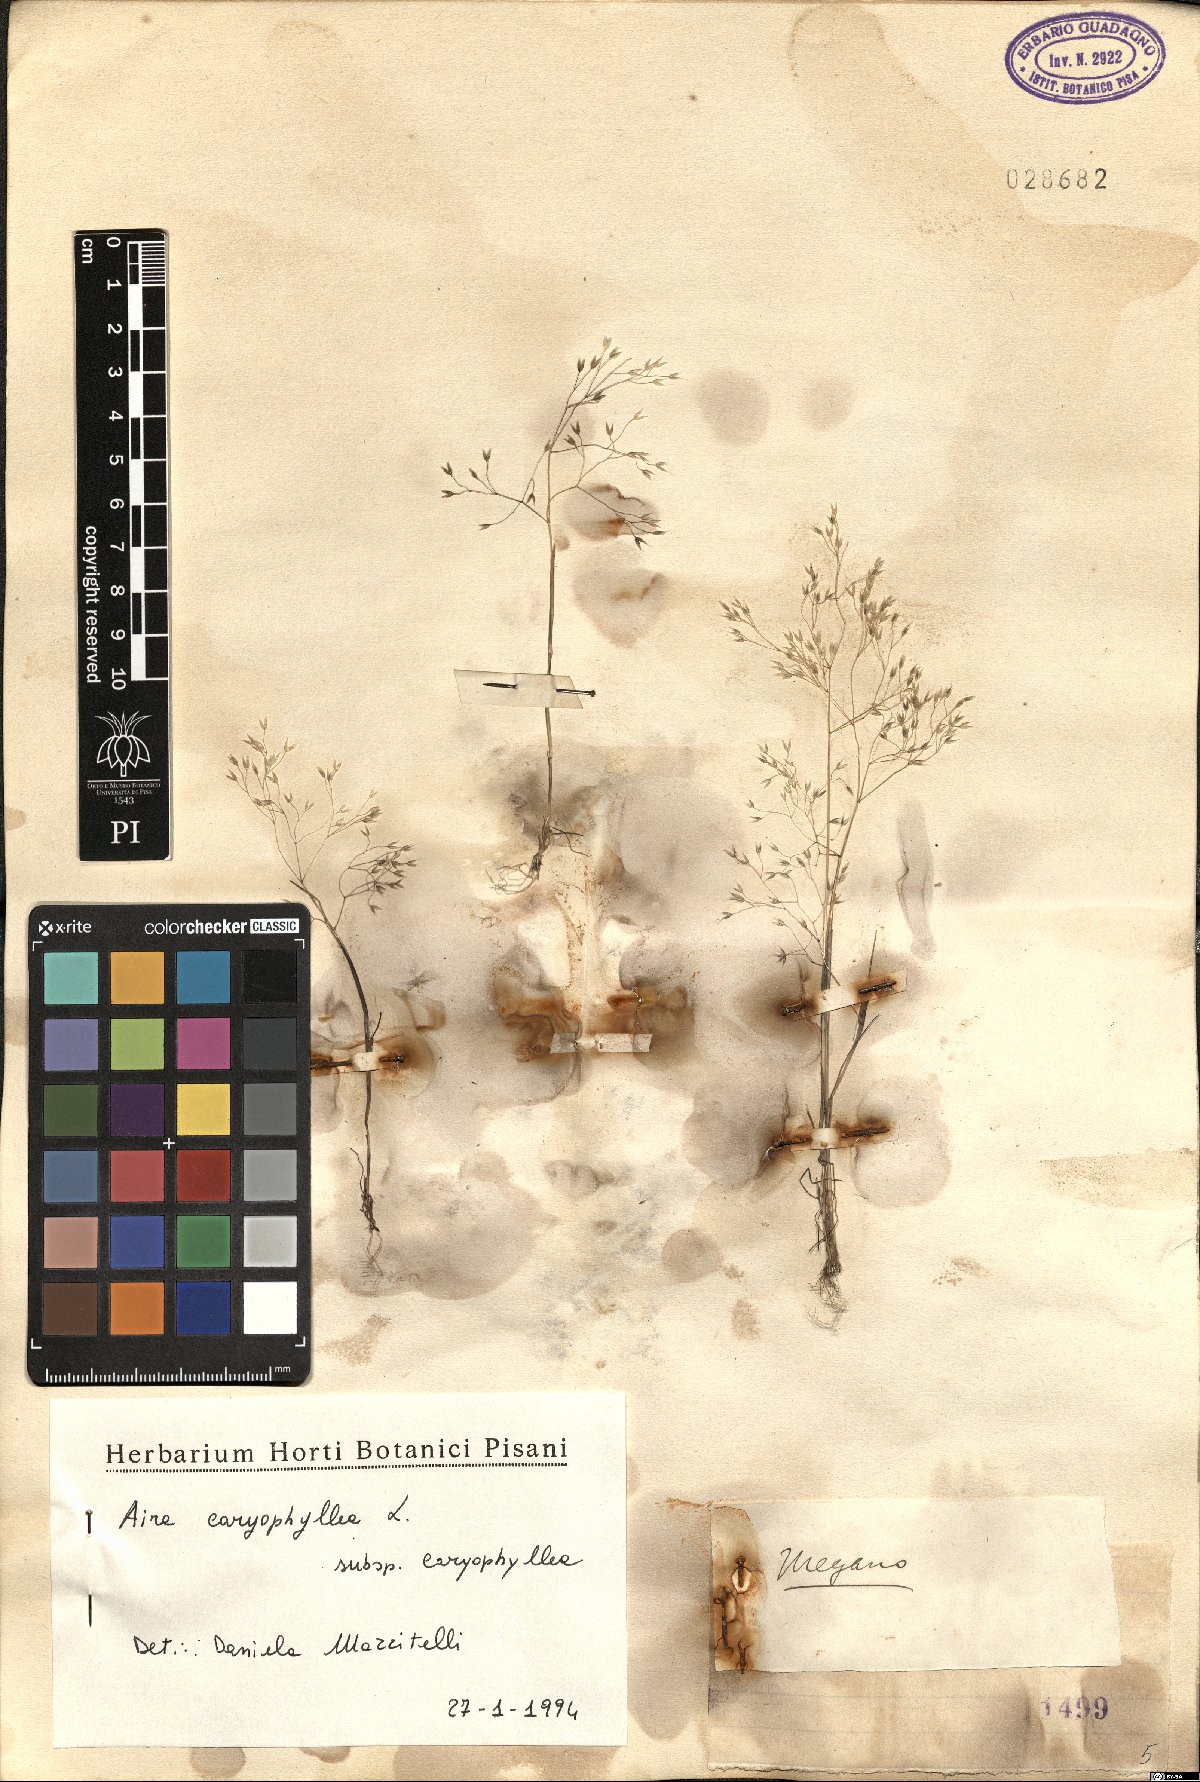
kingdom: Plantae
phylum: Tracheophyta
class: Liliopsida
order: Poales
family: Poaceae
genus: Aira
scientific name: Aira caryophyllea
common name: Silver hairgrass
